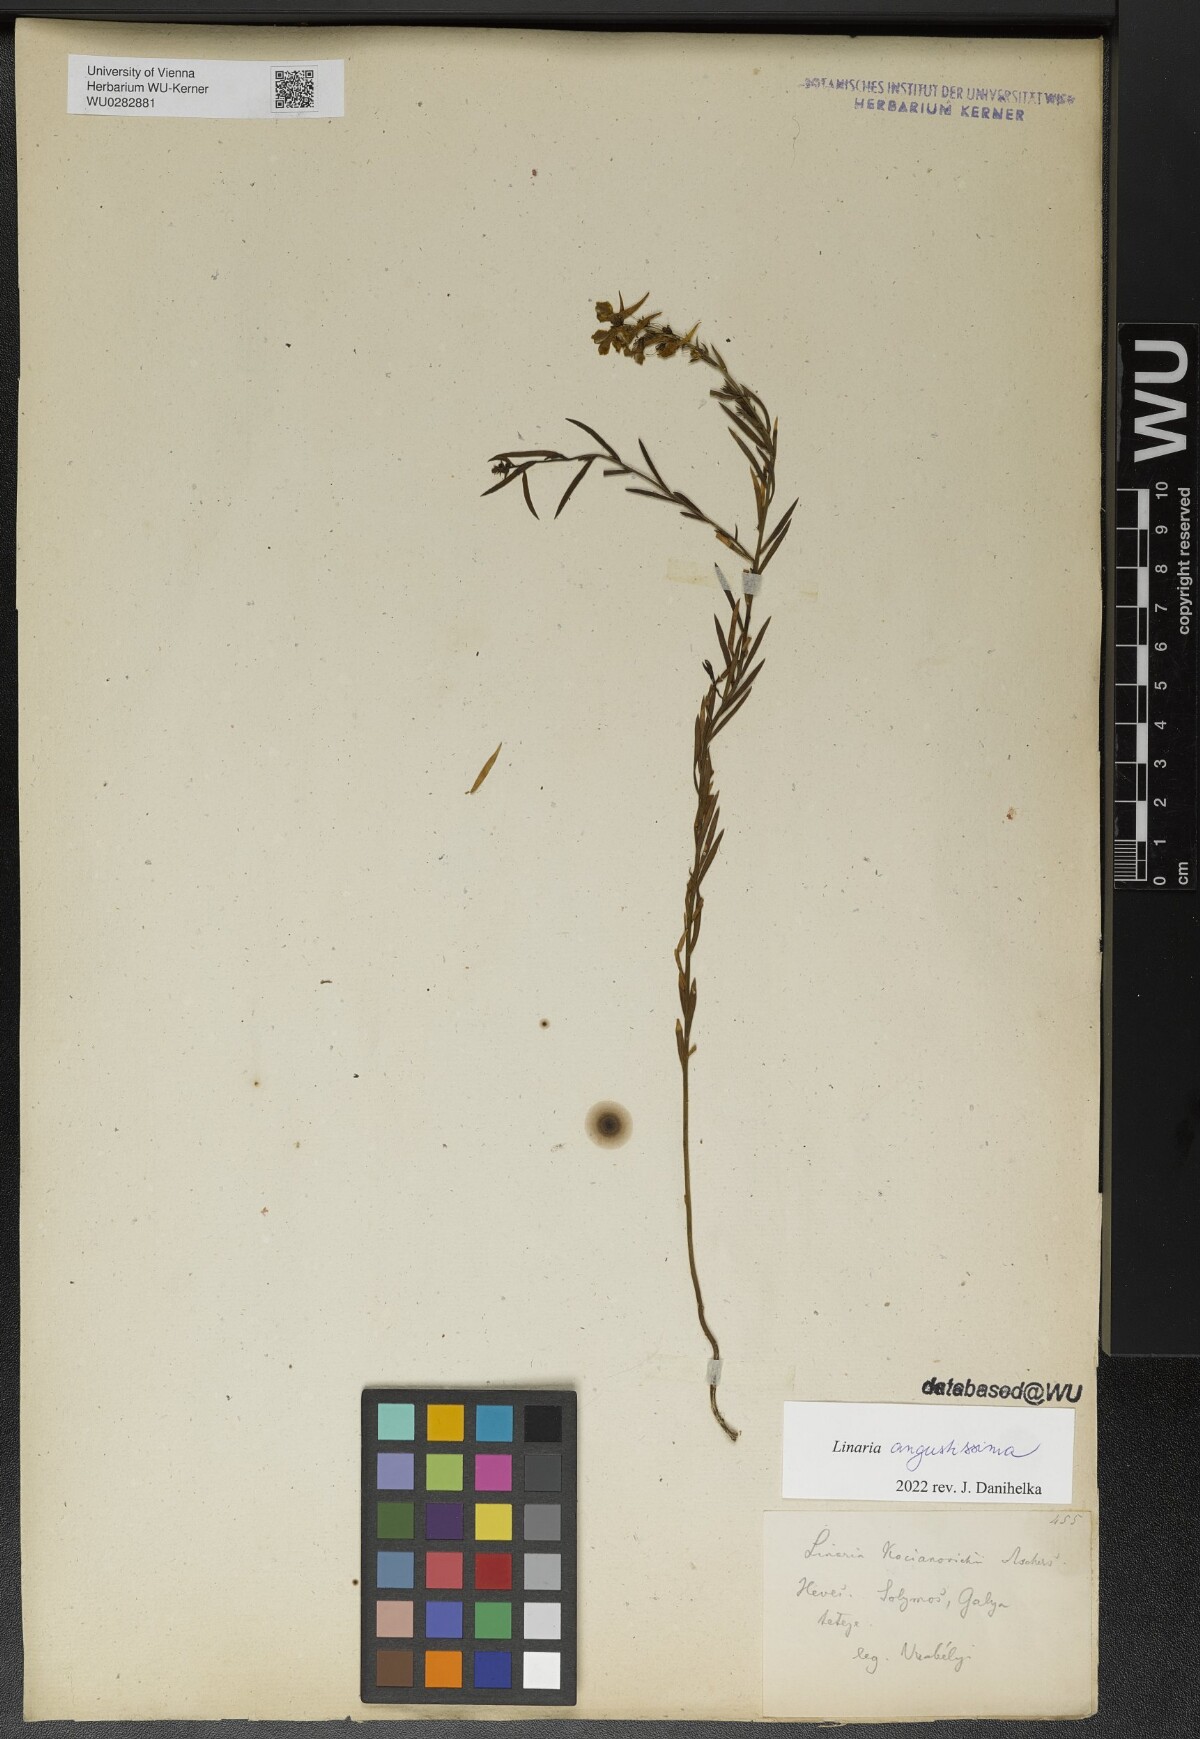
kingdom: Plantae
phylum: Tracheophyta
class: Magnoliopsida
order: Lamiales
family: Plantaginaceae
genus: Linaria
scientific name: Linaria angustissima
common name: Italian toadflax
